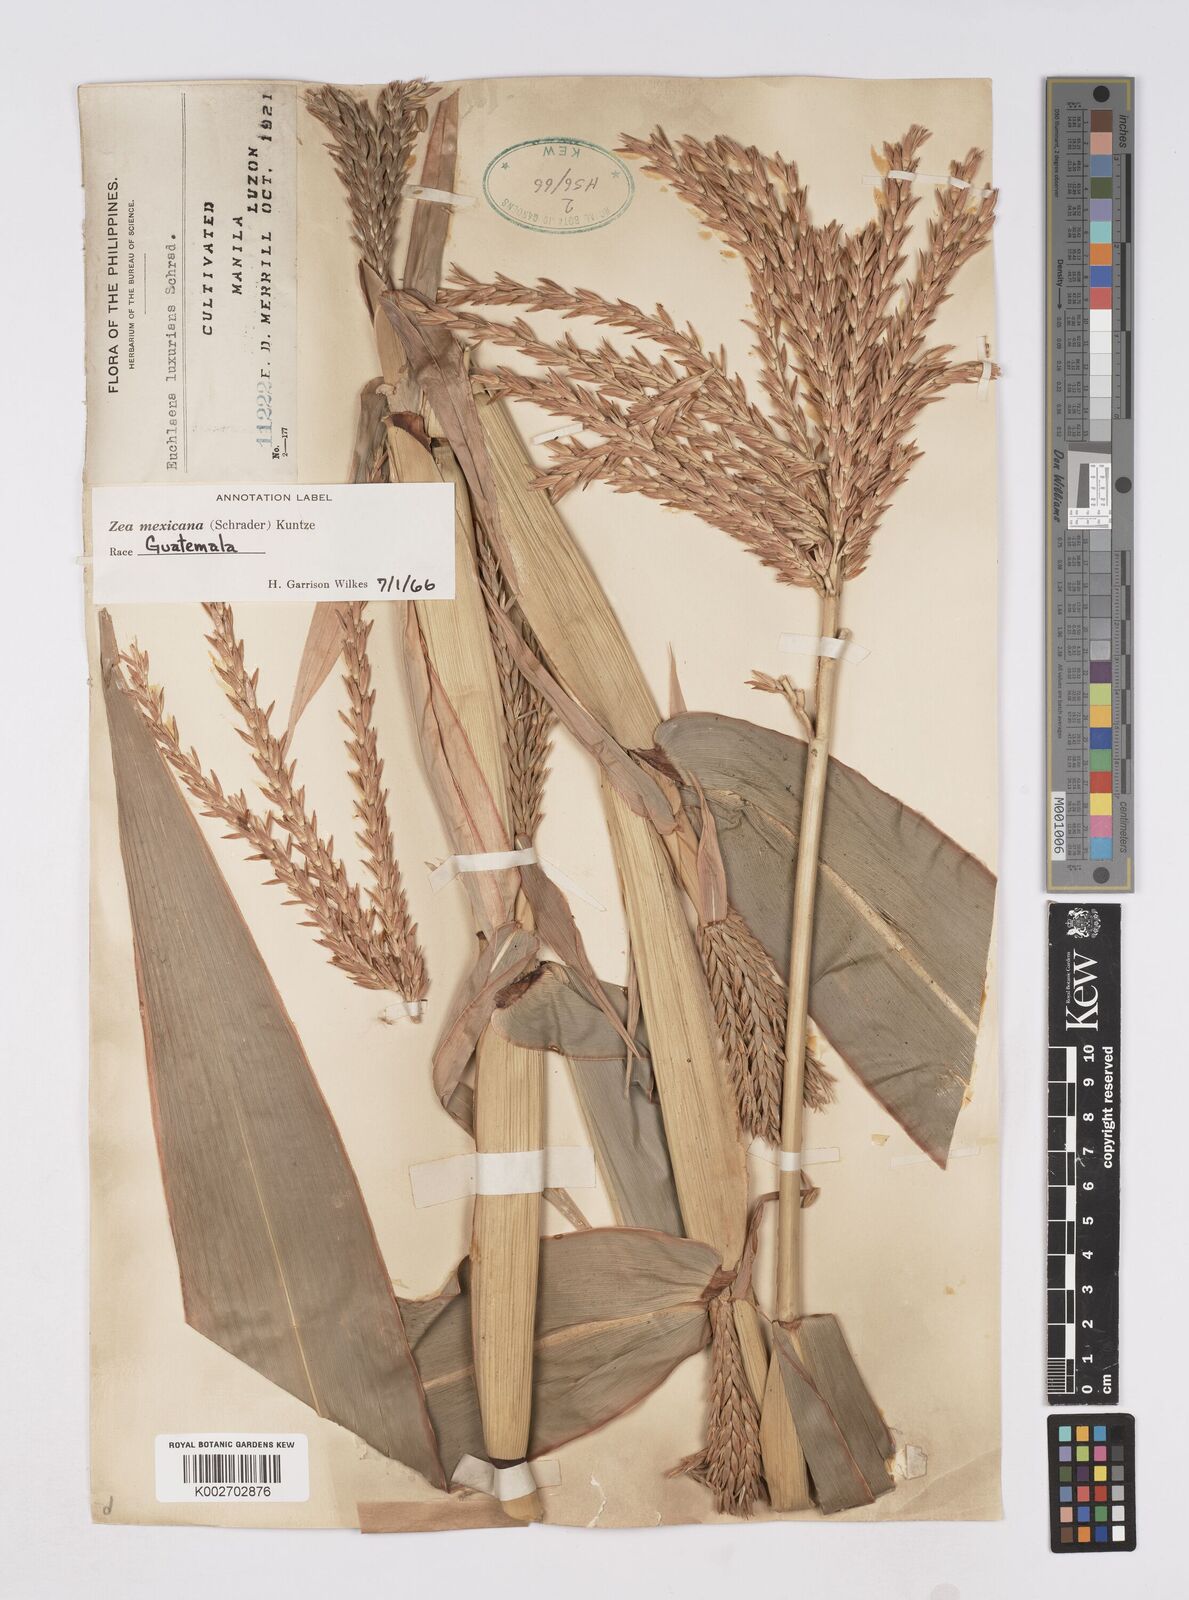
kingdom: Plantae
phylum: Tracheophyta
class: Liliopsida
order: Poales
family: Poaceae
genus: Zea
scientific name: Zea mexicana
